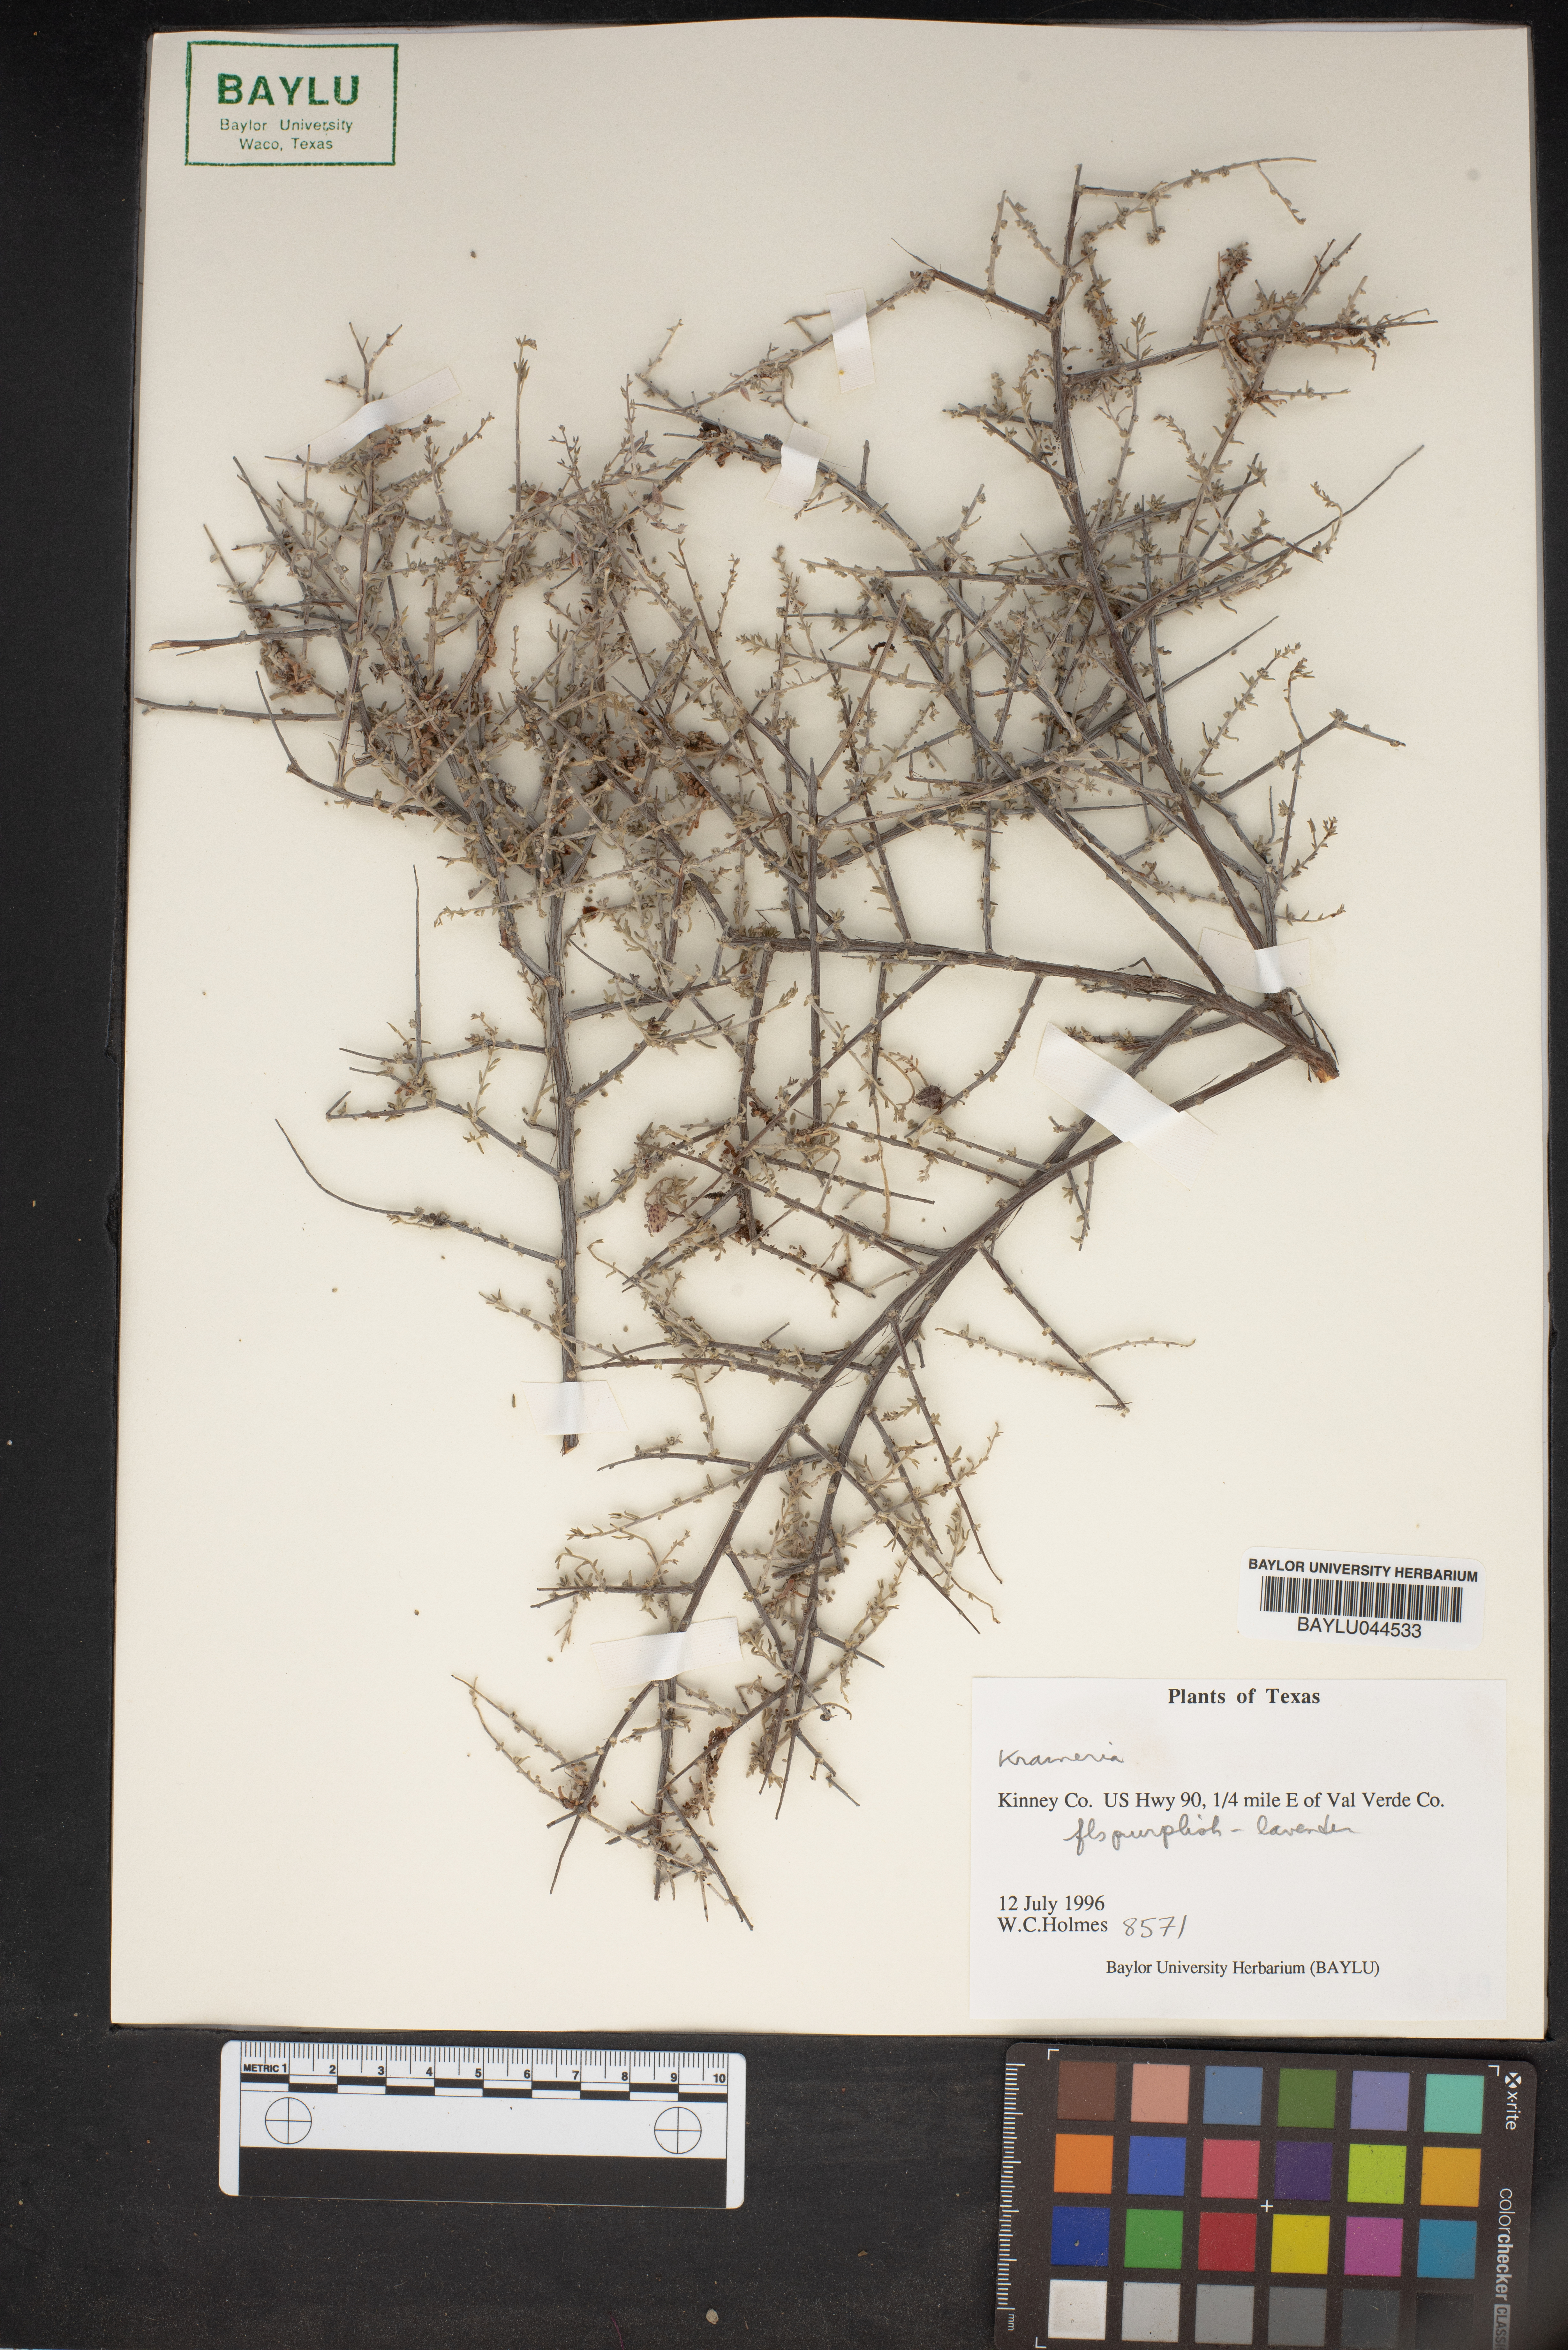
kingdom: Plantae
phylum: Tracheophyta
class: Magnoliopsida
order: Zygophyllales
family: Krameriaceae
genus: Krameria
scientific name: Krameria
